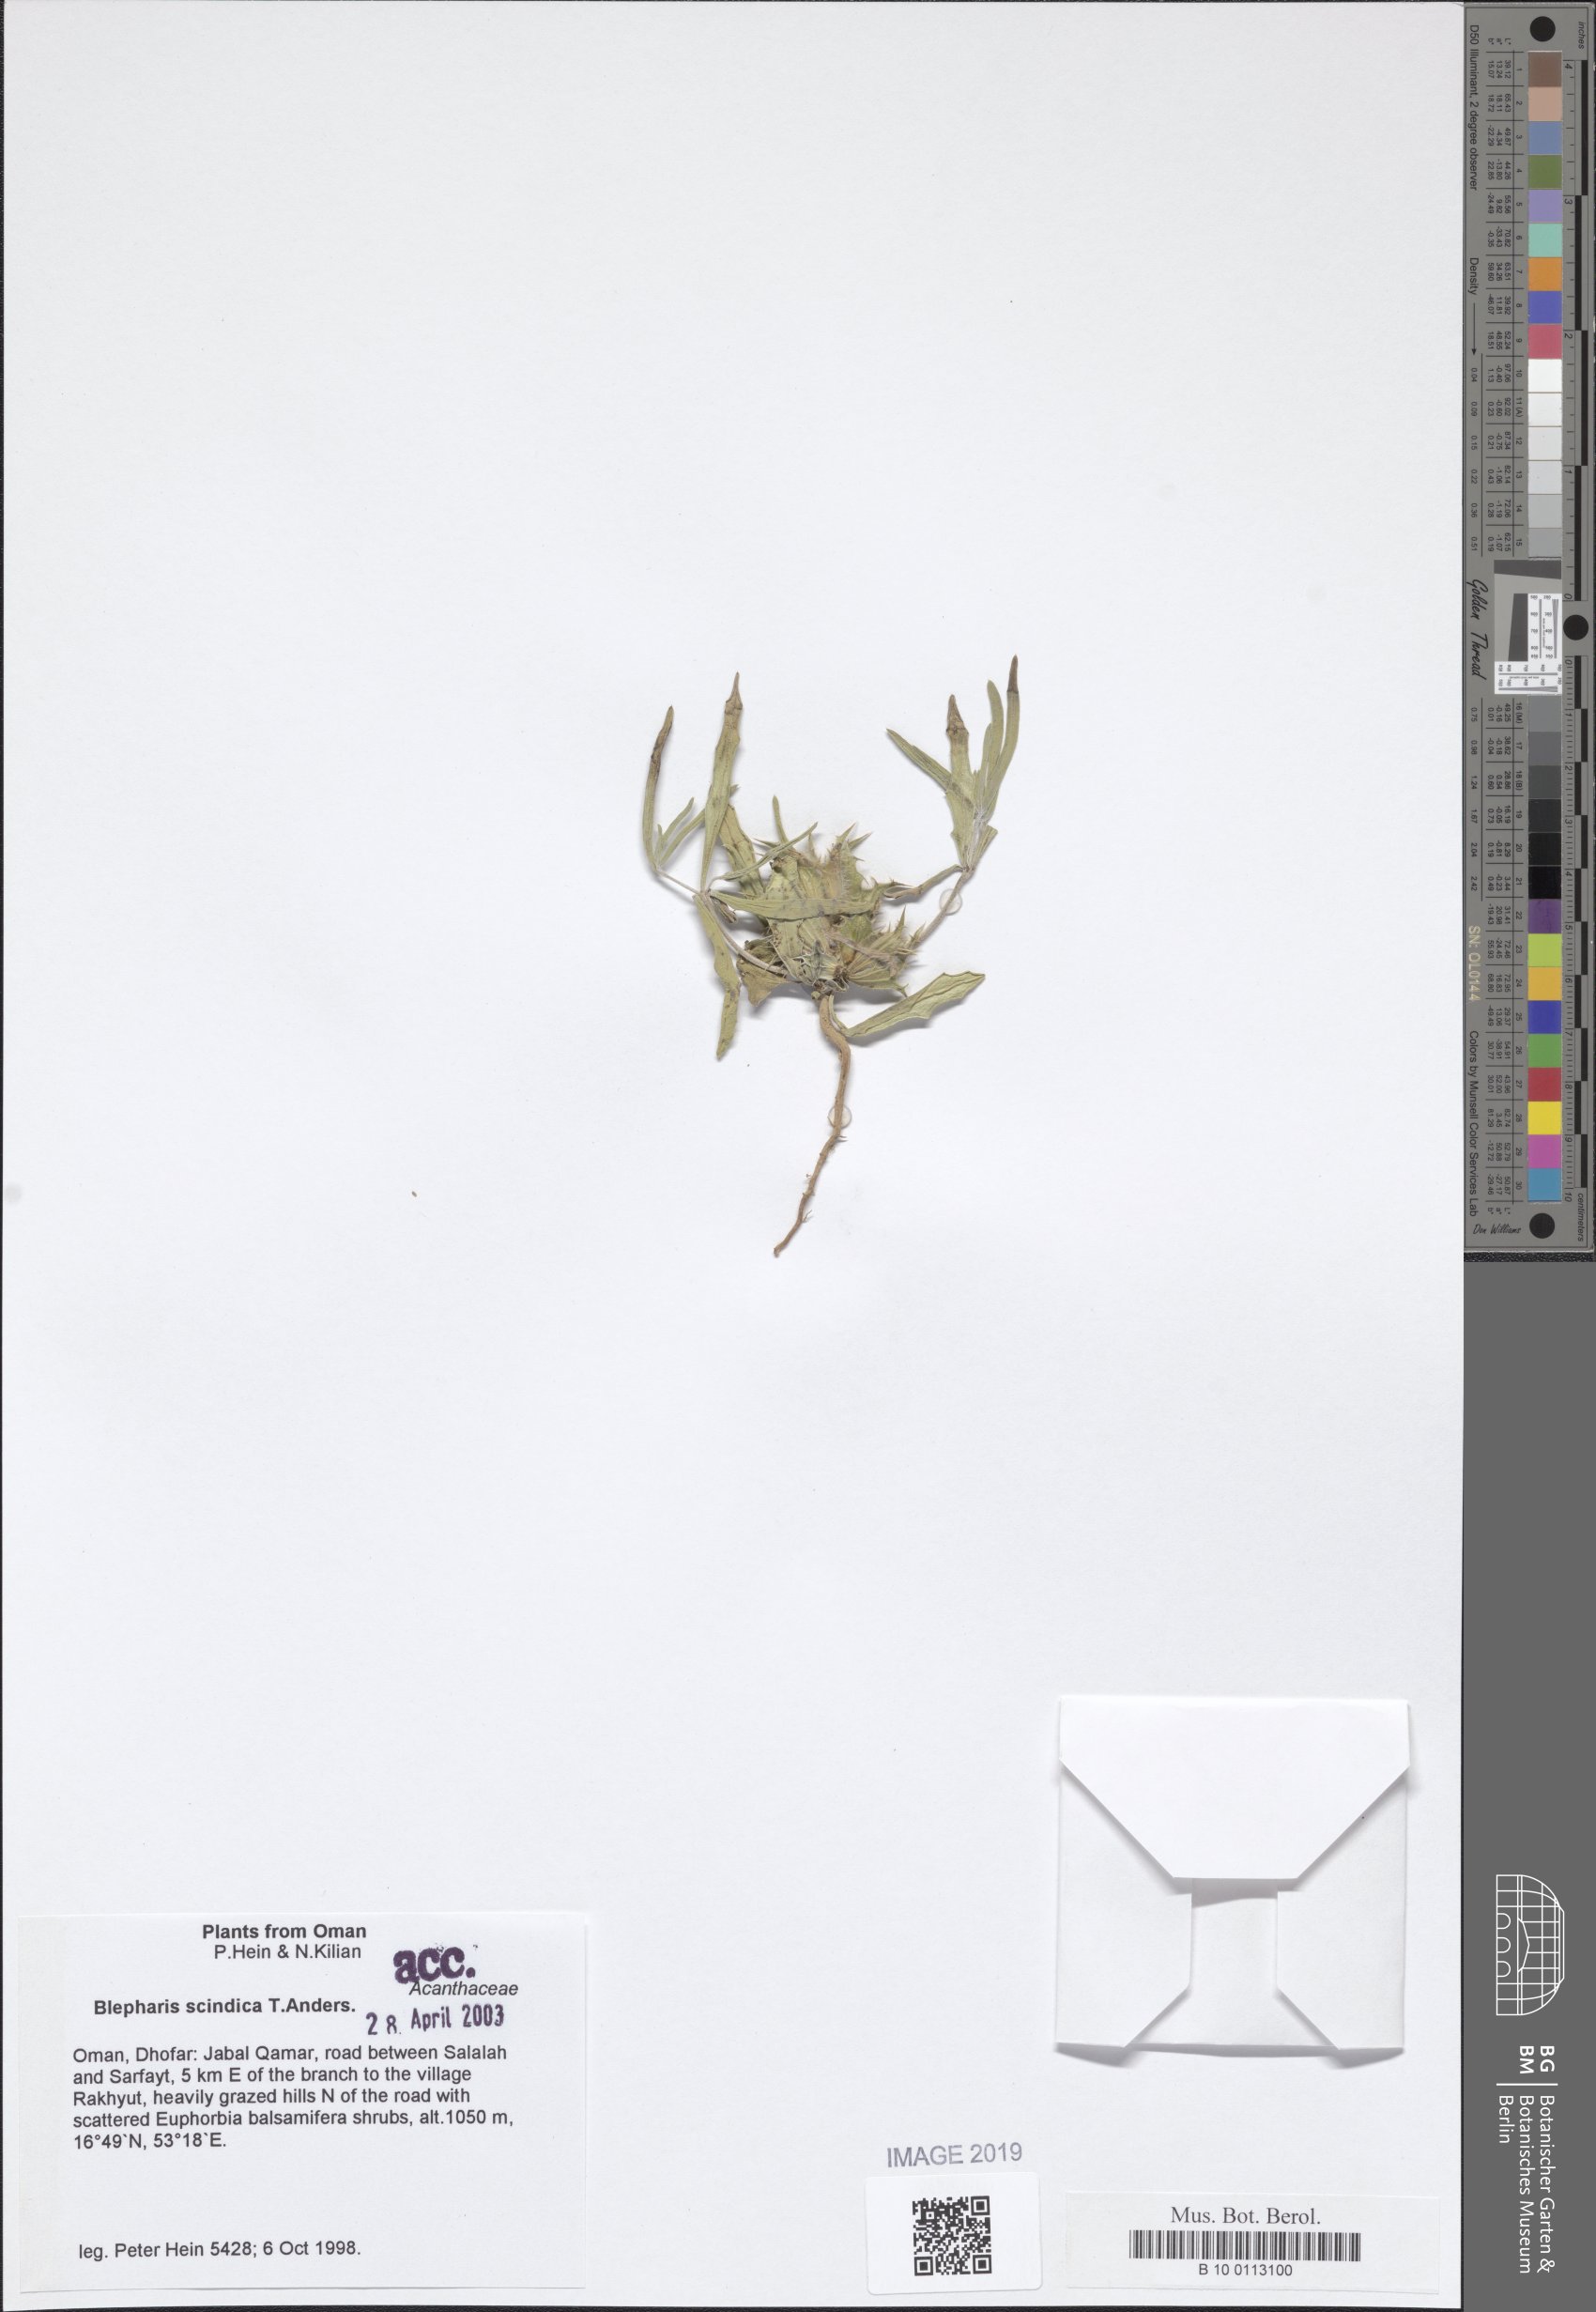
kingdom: Plantae
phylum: Tracheophyta
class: Magnoliopsida
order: Lamiales
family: Acanthaceae
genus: Blepharis
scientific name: Blepharis scindica
